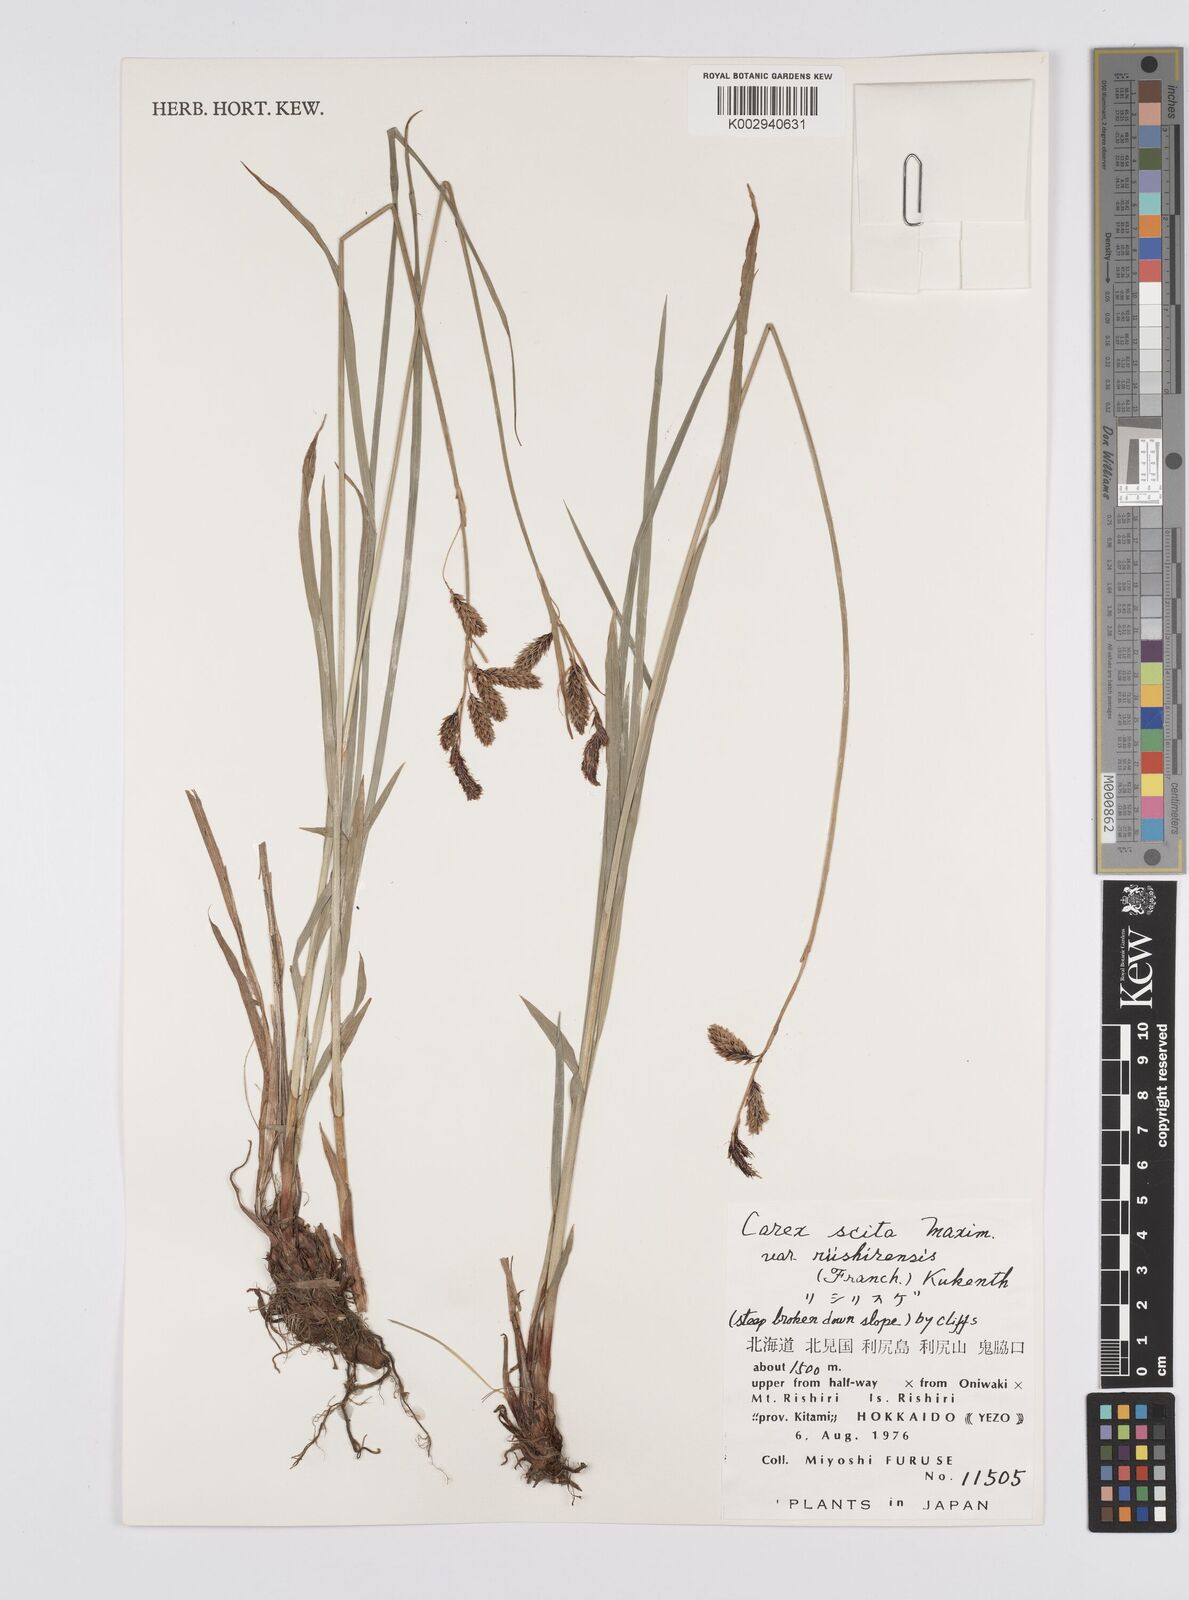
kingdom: Plantae
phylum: Tracheophyta
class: Liliopsida
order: Poales
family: Cyperaceae
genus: Carex
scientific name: Carex scita
